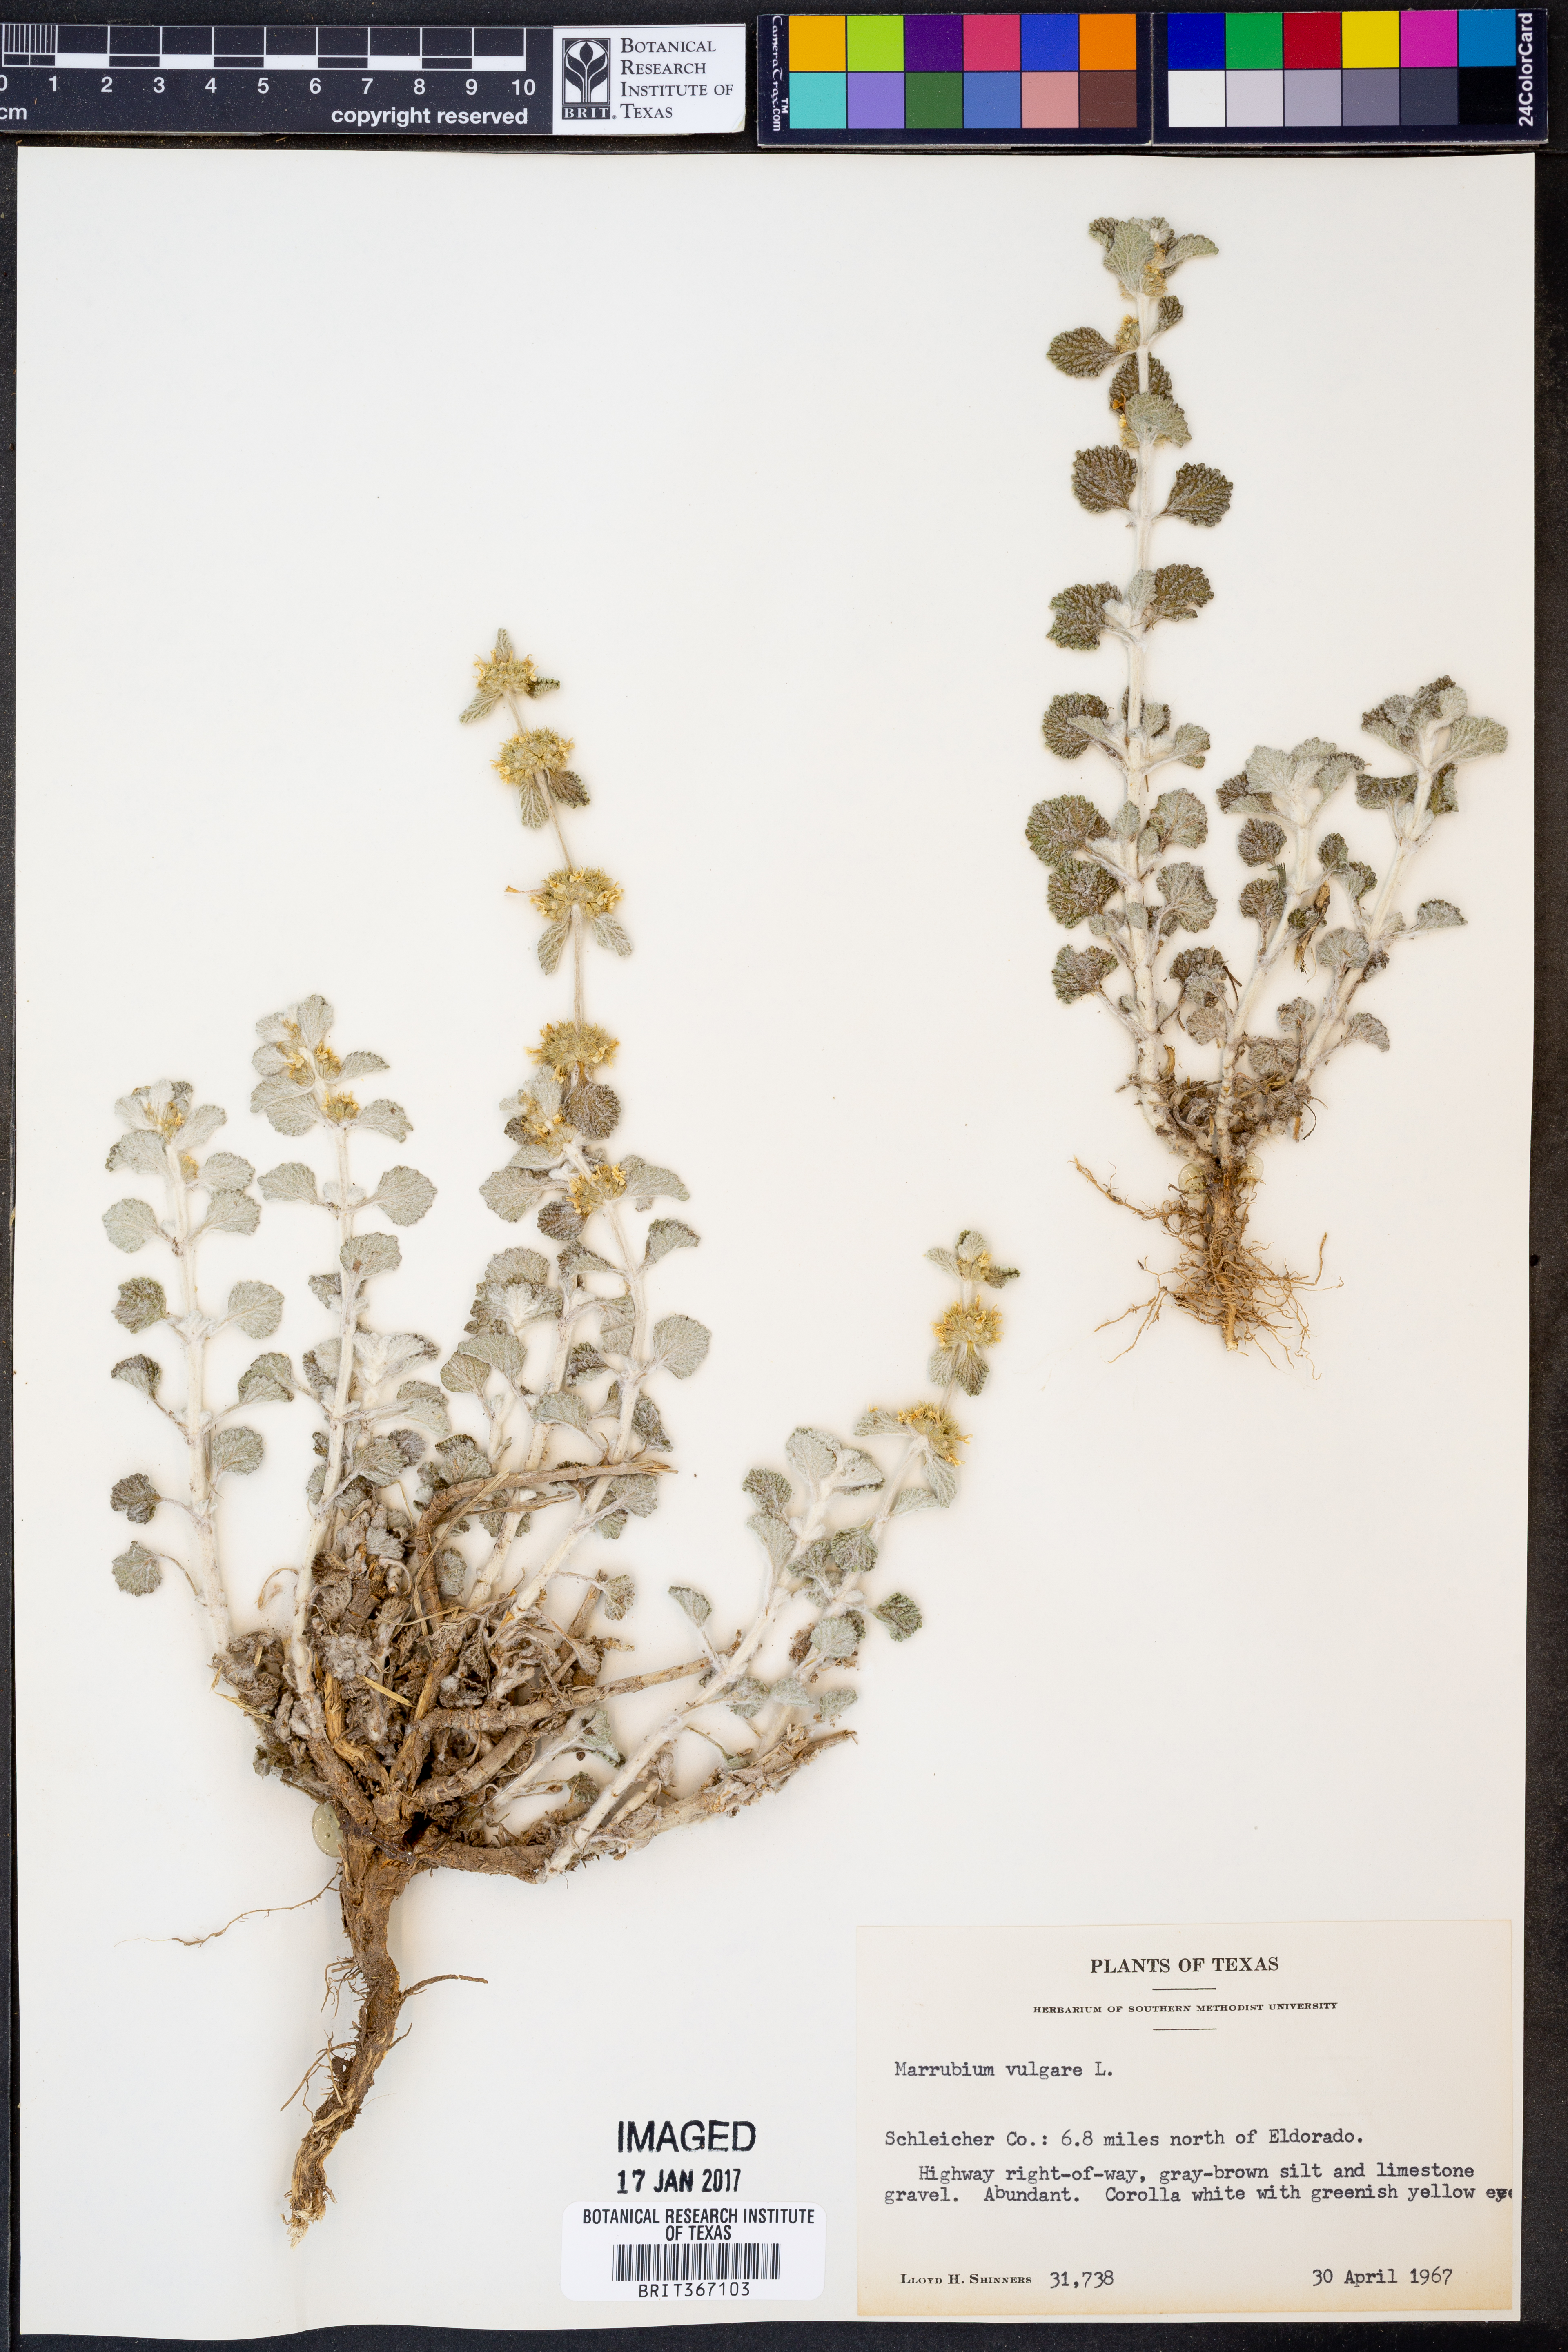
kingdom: Plantae
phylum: Tracheophyta
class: Magnoliopsida
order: Lamiales
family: Lamiaceae
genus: Marrubium
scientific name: Marrubium vulgare
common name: Horehound
